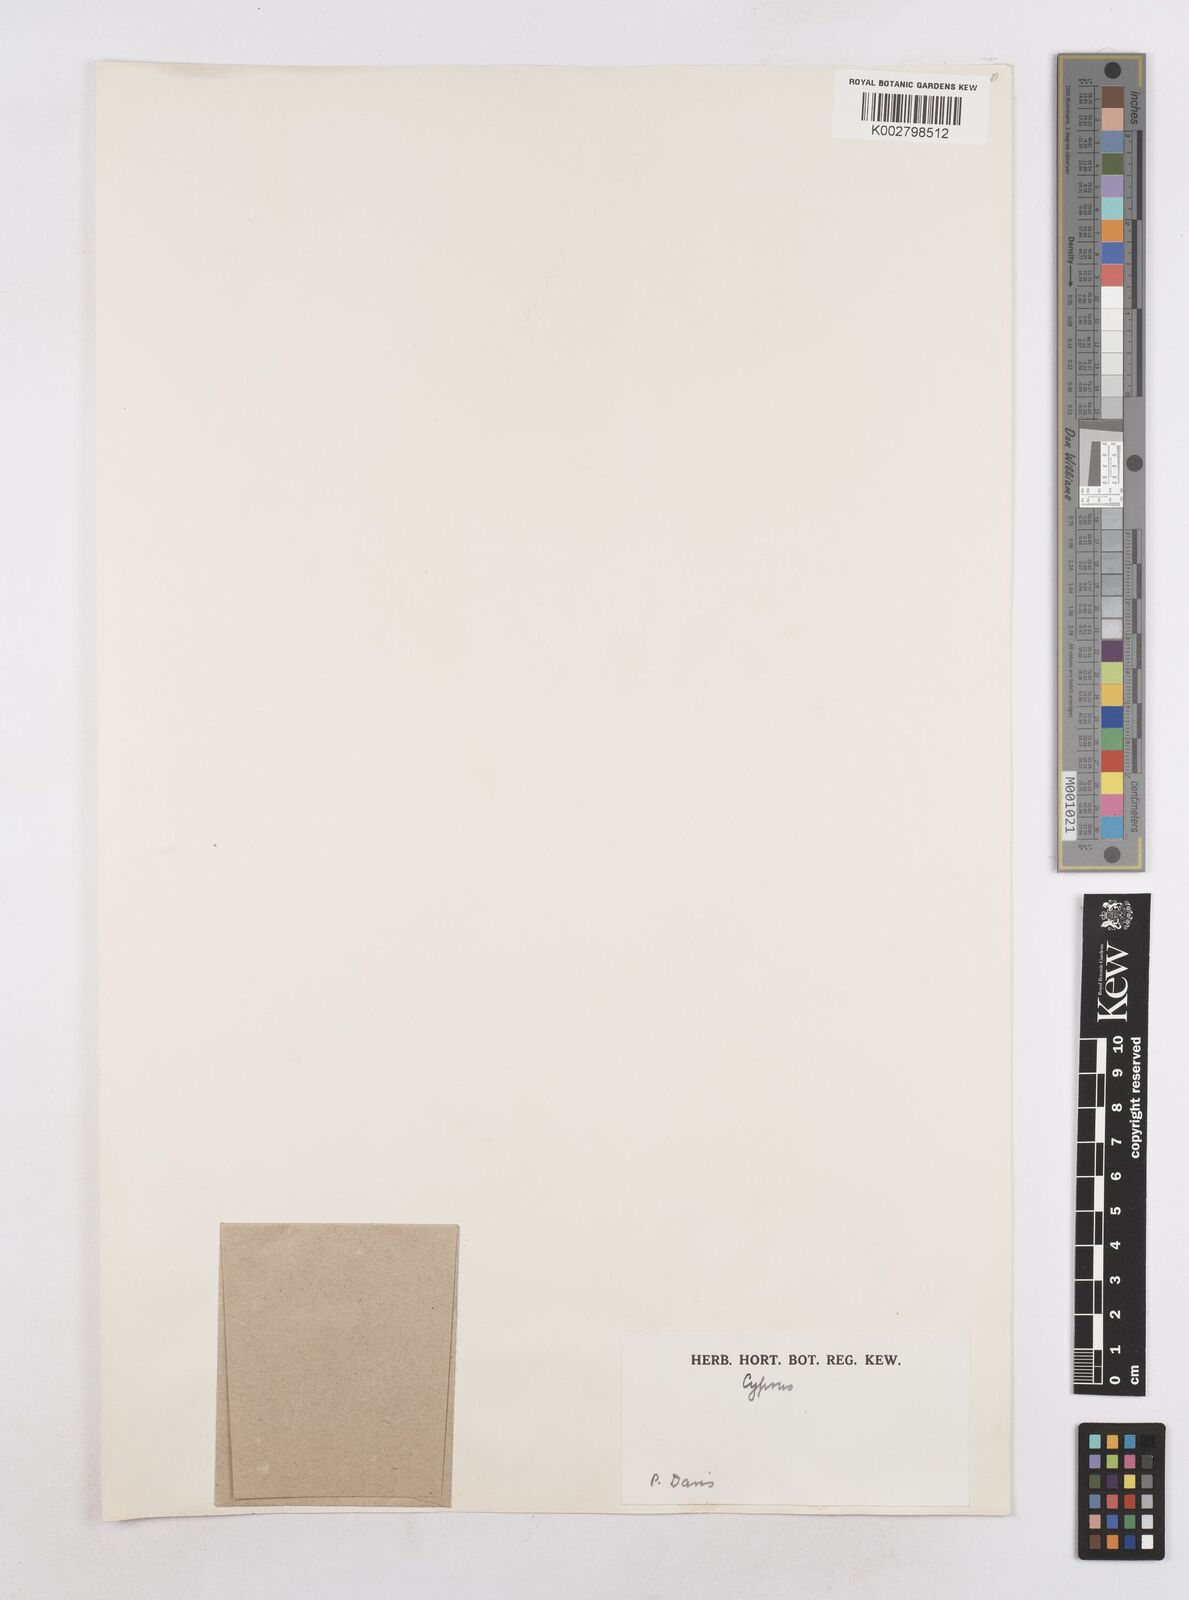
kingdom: Plantae
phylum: Tracheophyta
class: Liliopsida
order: Poales
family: Poaceae
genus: Festuca
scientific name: Festuca lachenalii
